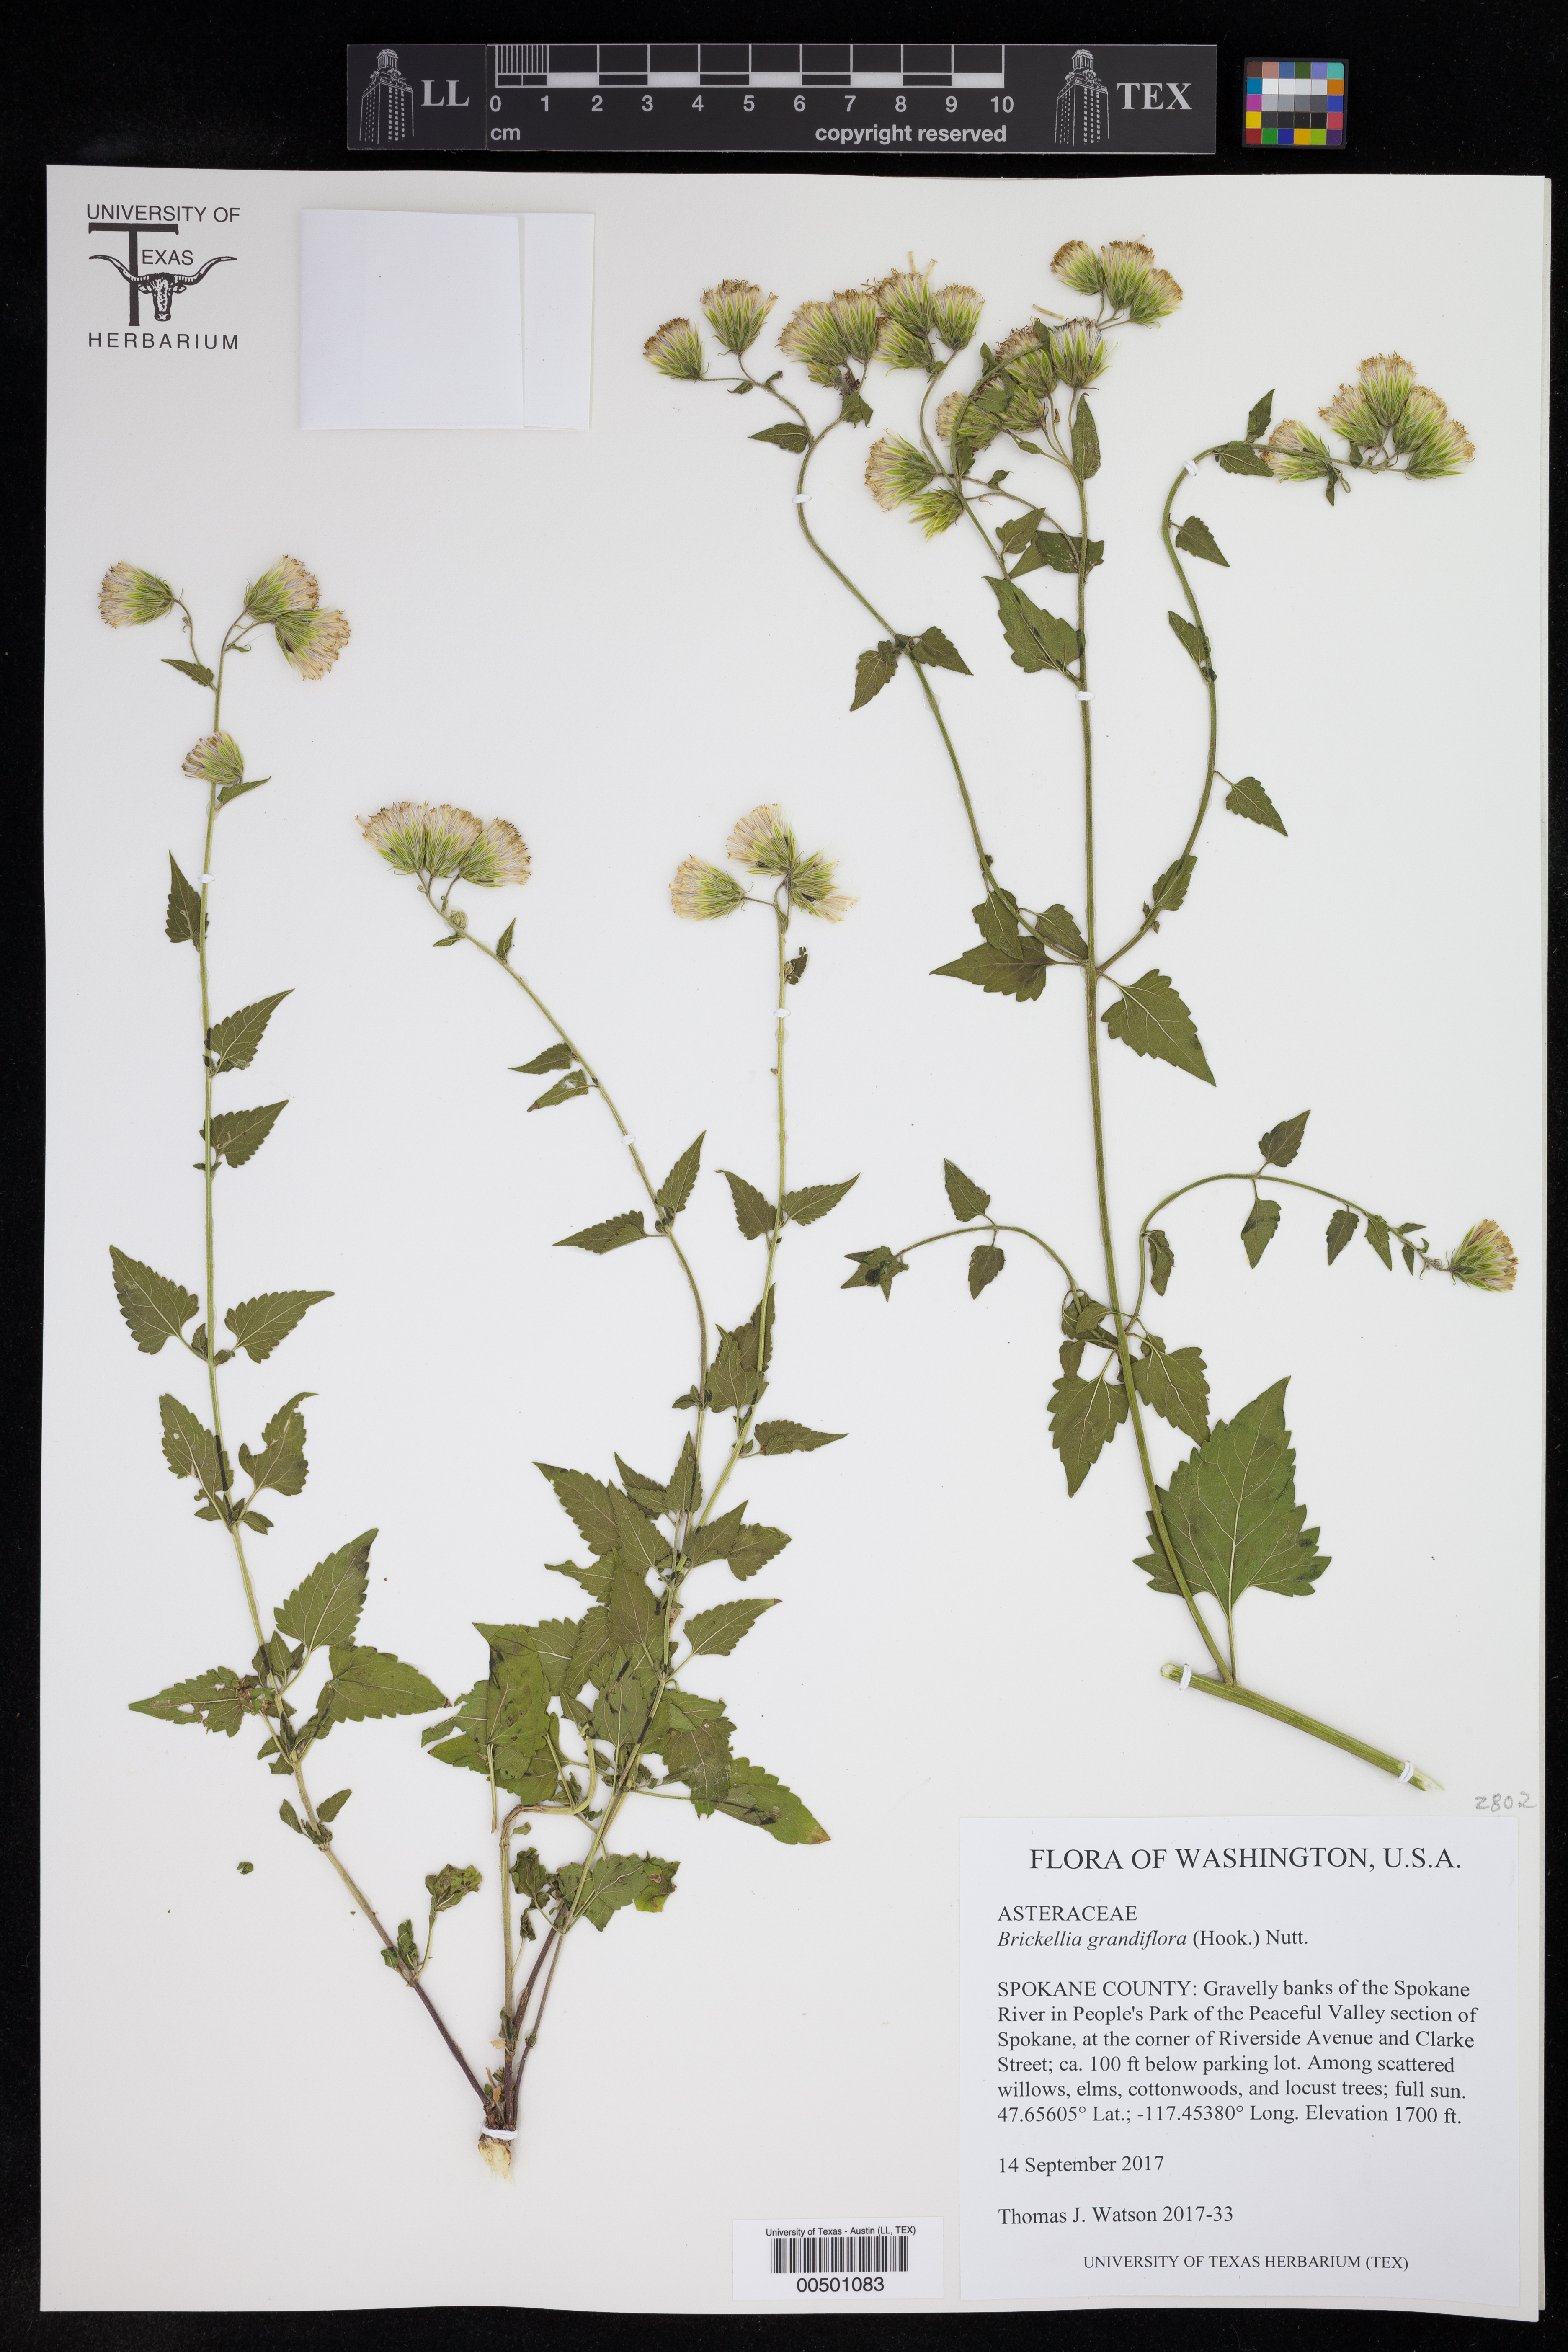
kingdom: Plantae
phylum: Tracheophyta
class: Magnoliopsida
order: Asterales
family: Asteraceae
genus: Brickellia
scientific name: Brickellia grandiflora
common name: Large-flowered brickellia
